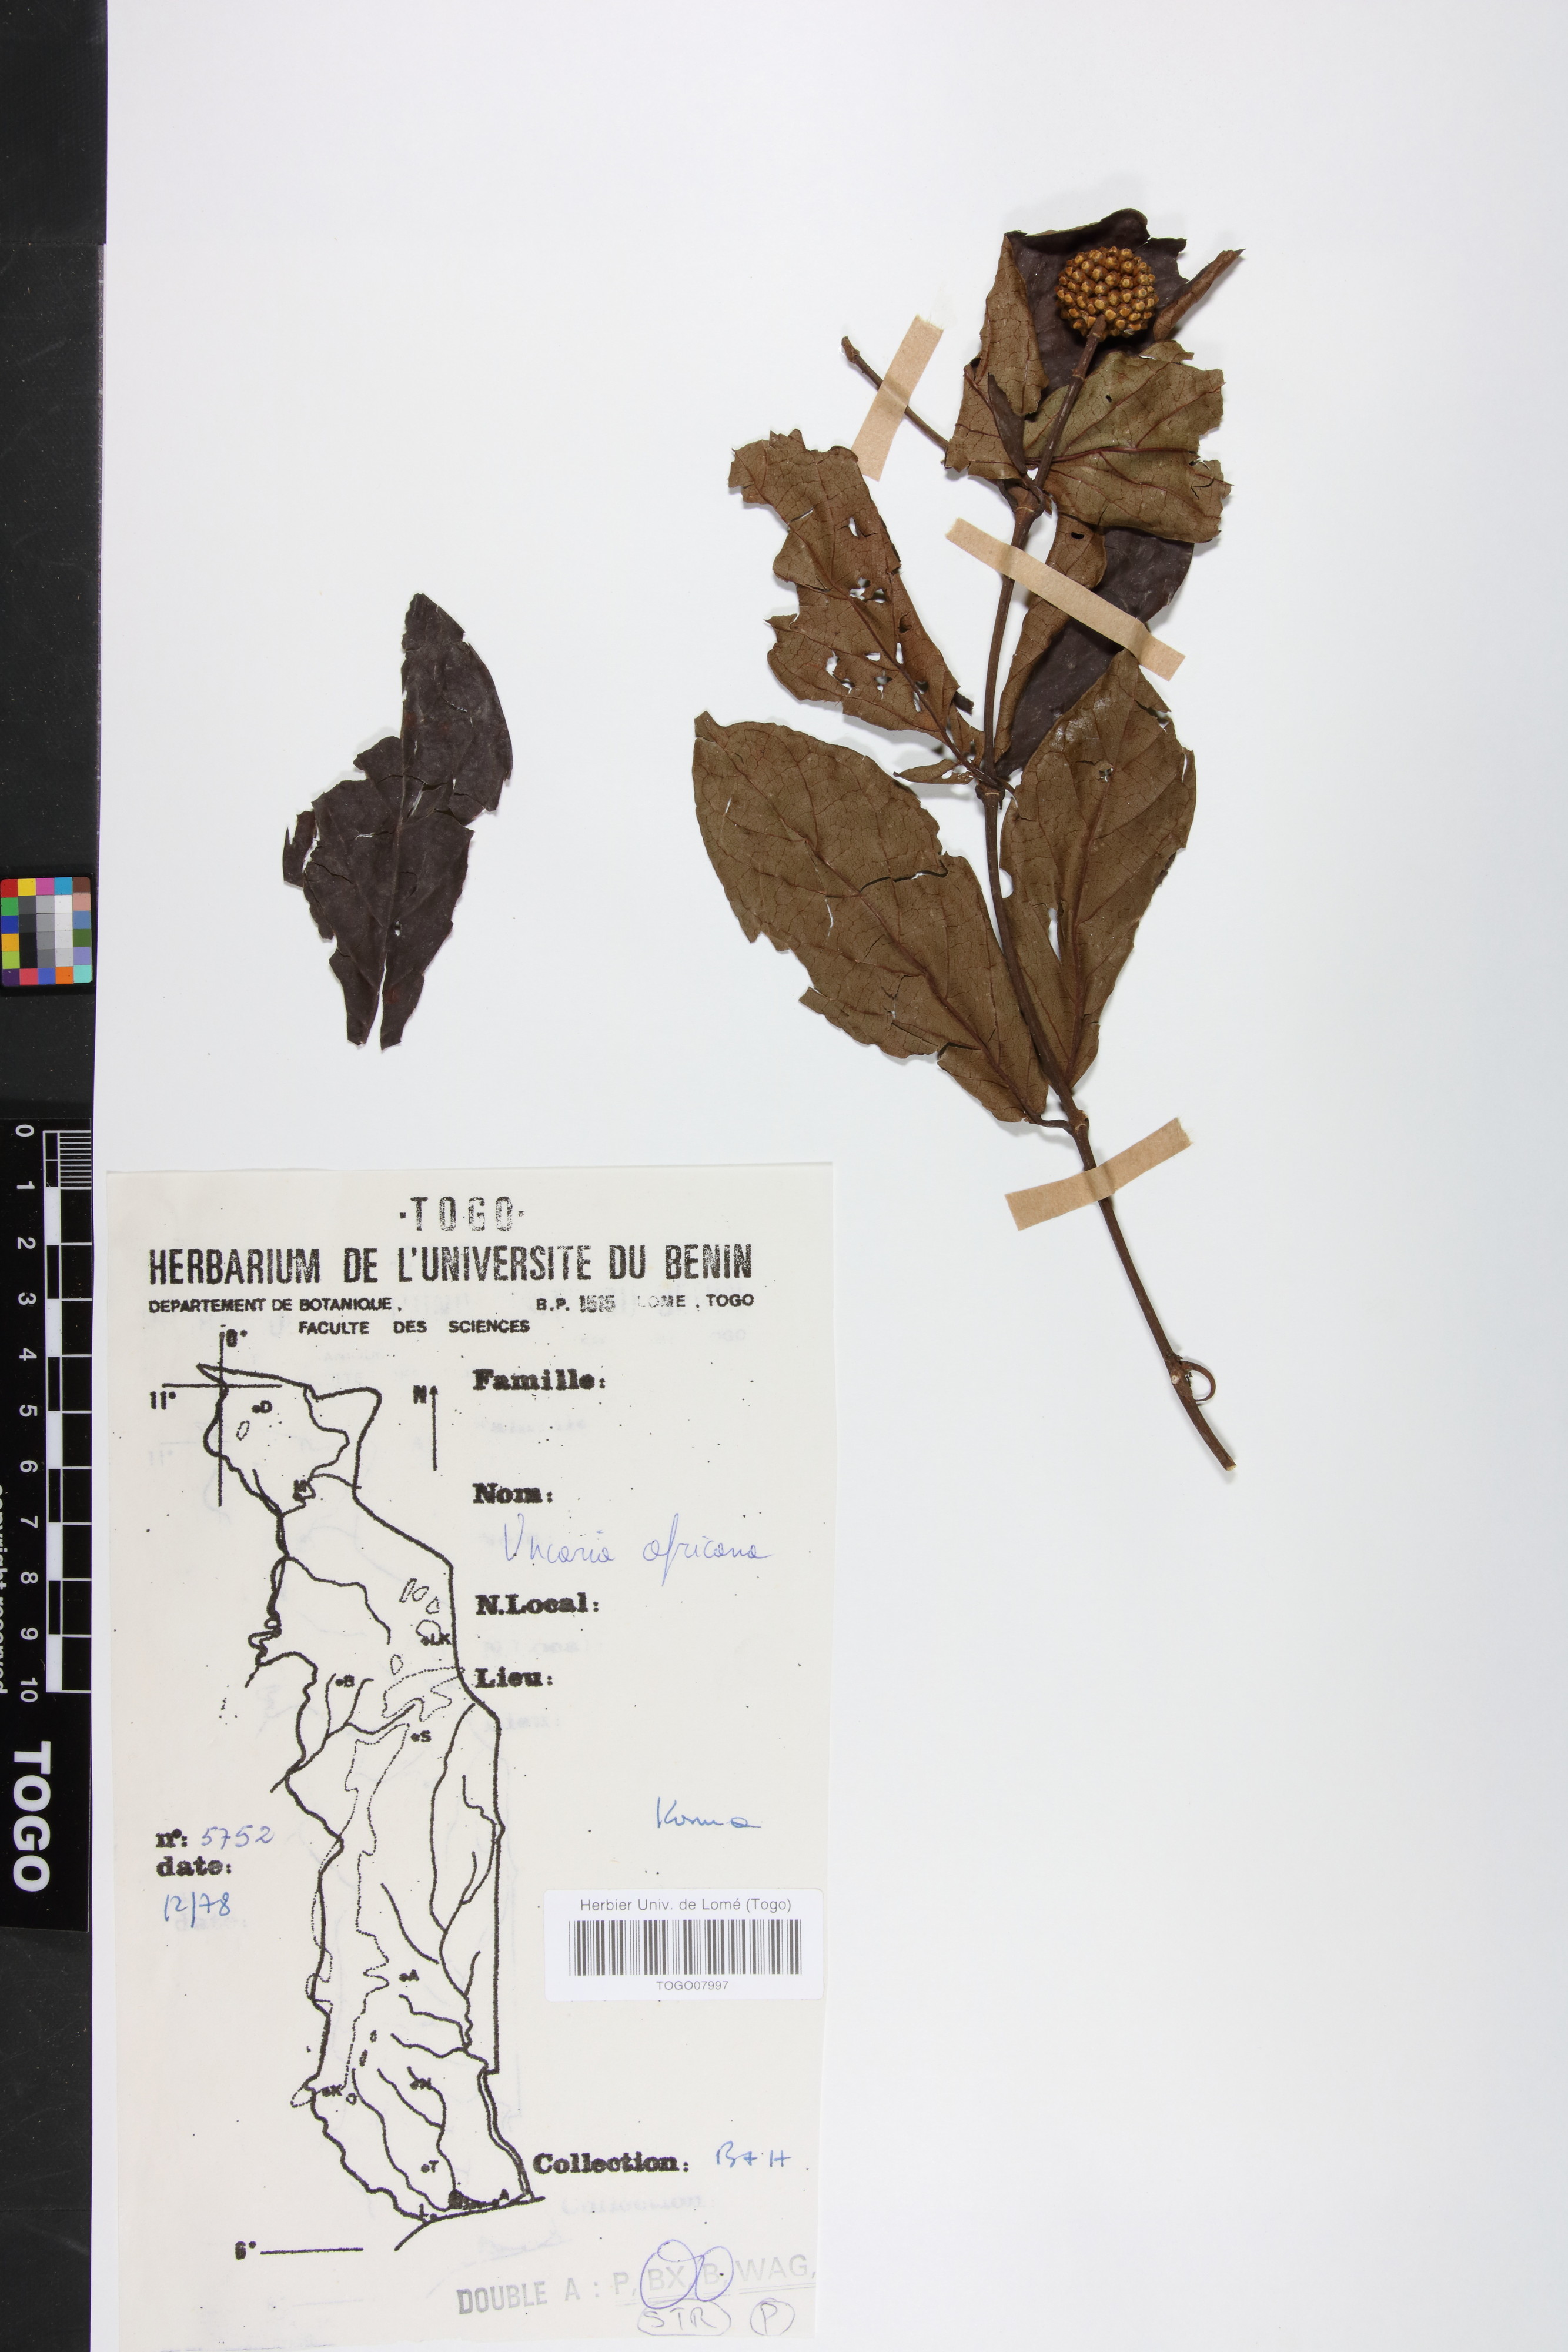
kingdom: Plantae
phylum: Tracheophyta
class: Magnoliopsida
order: Gentianales
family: Rubiaceae
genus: Uncaria
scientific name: Uncaria africana
